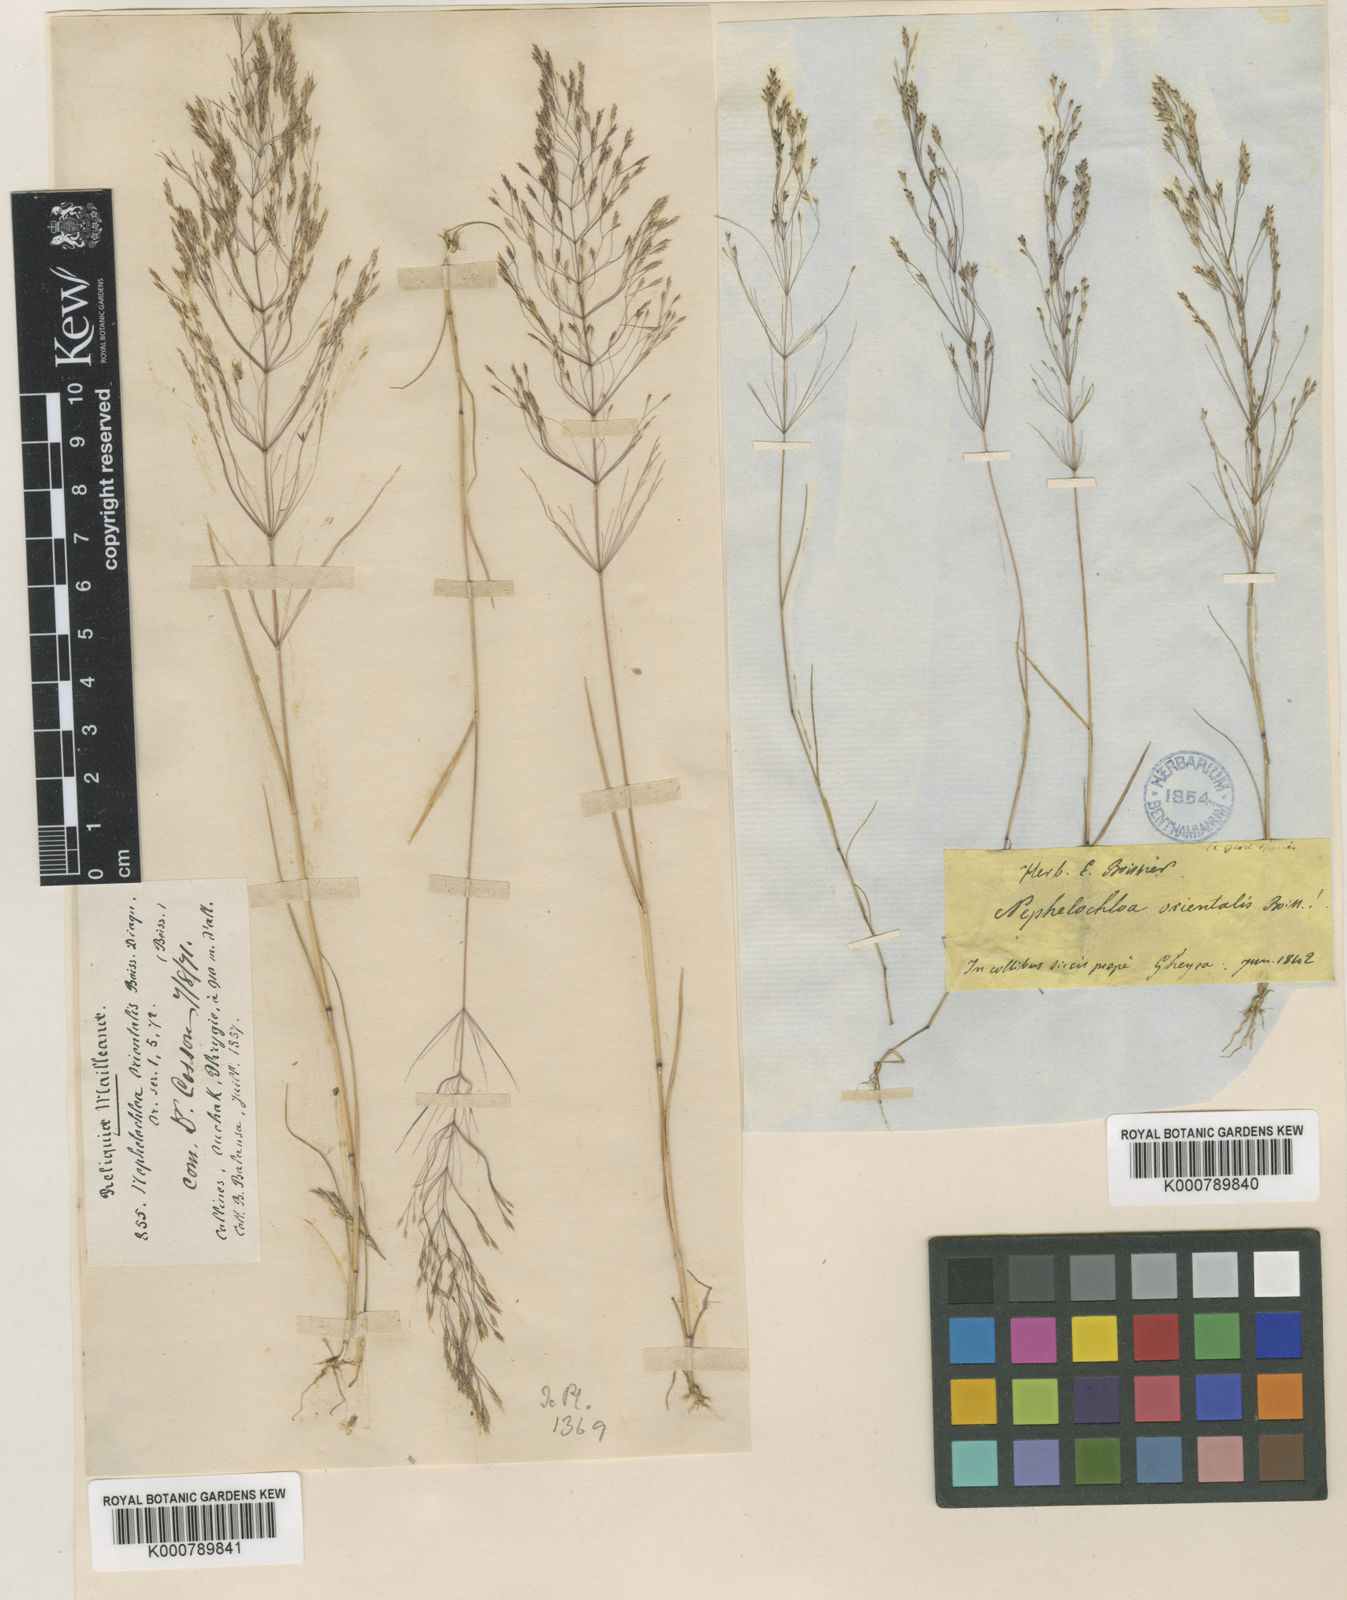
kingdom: Plantae
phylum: Tracheophyta
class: Liliopsida
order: Poales
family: Poaceae
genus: Nephelochloa
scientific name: Nephelochloa orientalis
